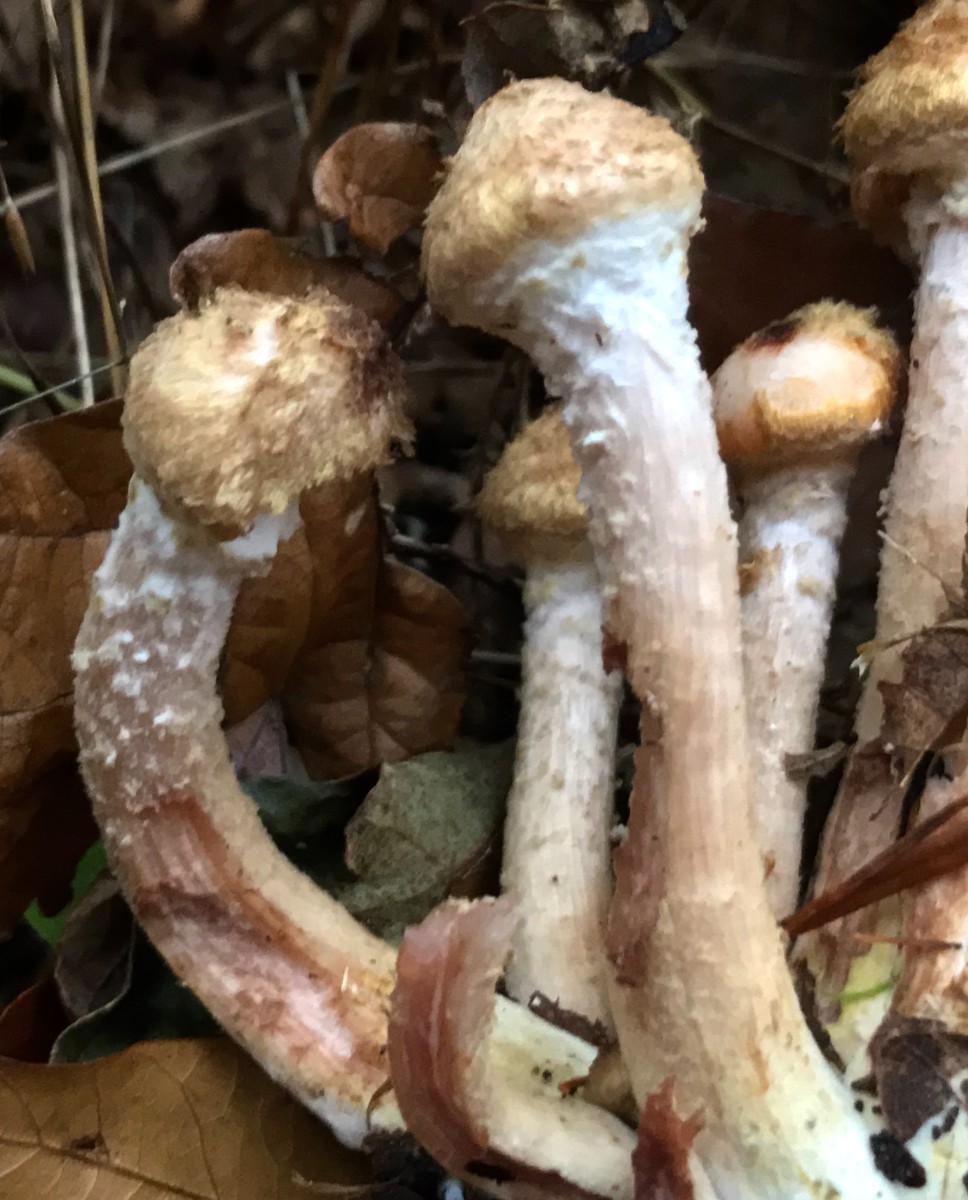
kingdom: Fungi
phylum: Basidiomycota
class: Agaricomycetes
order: Agaricales
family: Physalacriaceae
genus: Armillaria
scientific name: Armillaria lutea
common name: køllestokket honningsvamp
